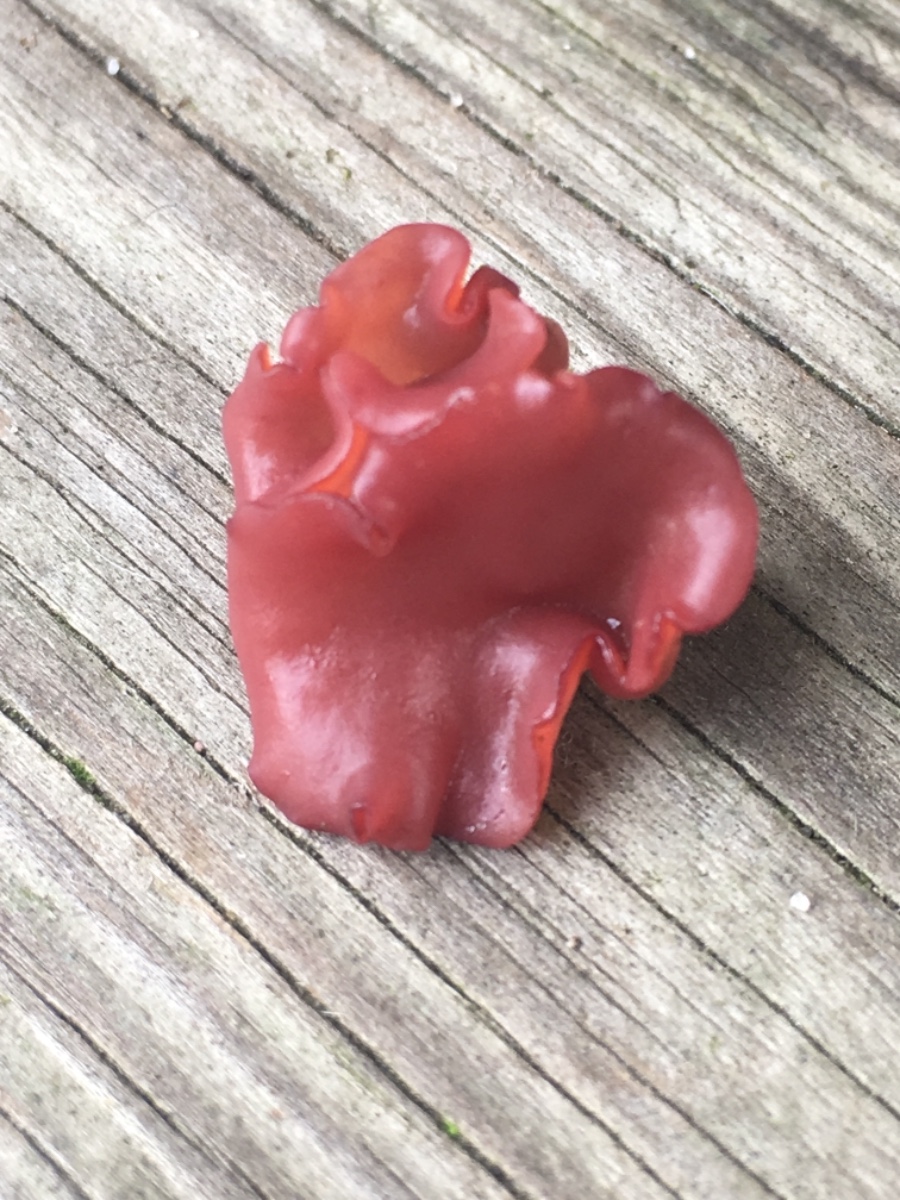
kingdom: Fungi
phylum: Ascomycota
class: Leotiomycetes
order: Helotiales
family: Gelatinodiscaceae
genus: Ascocoryne
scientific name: Ascocoryne
